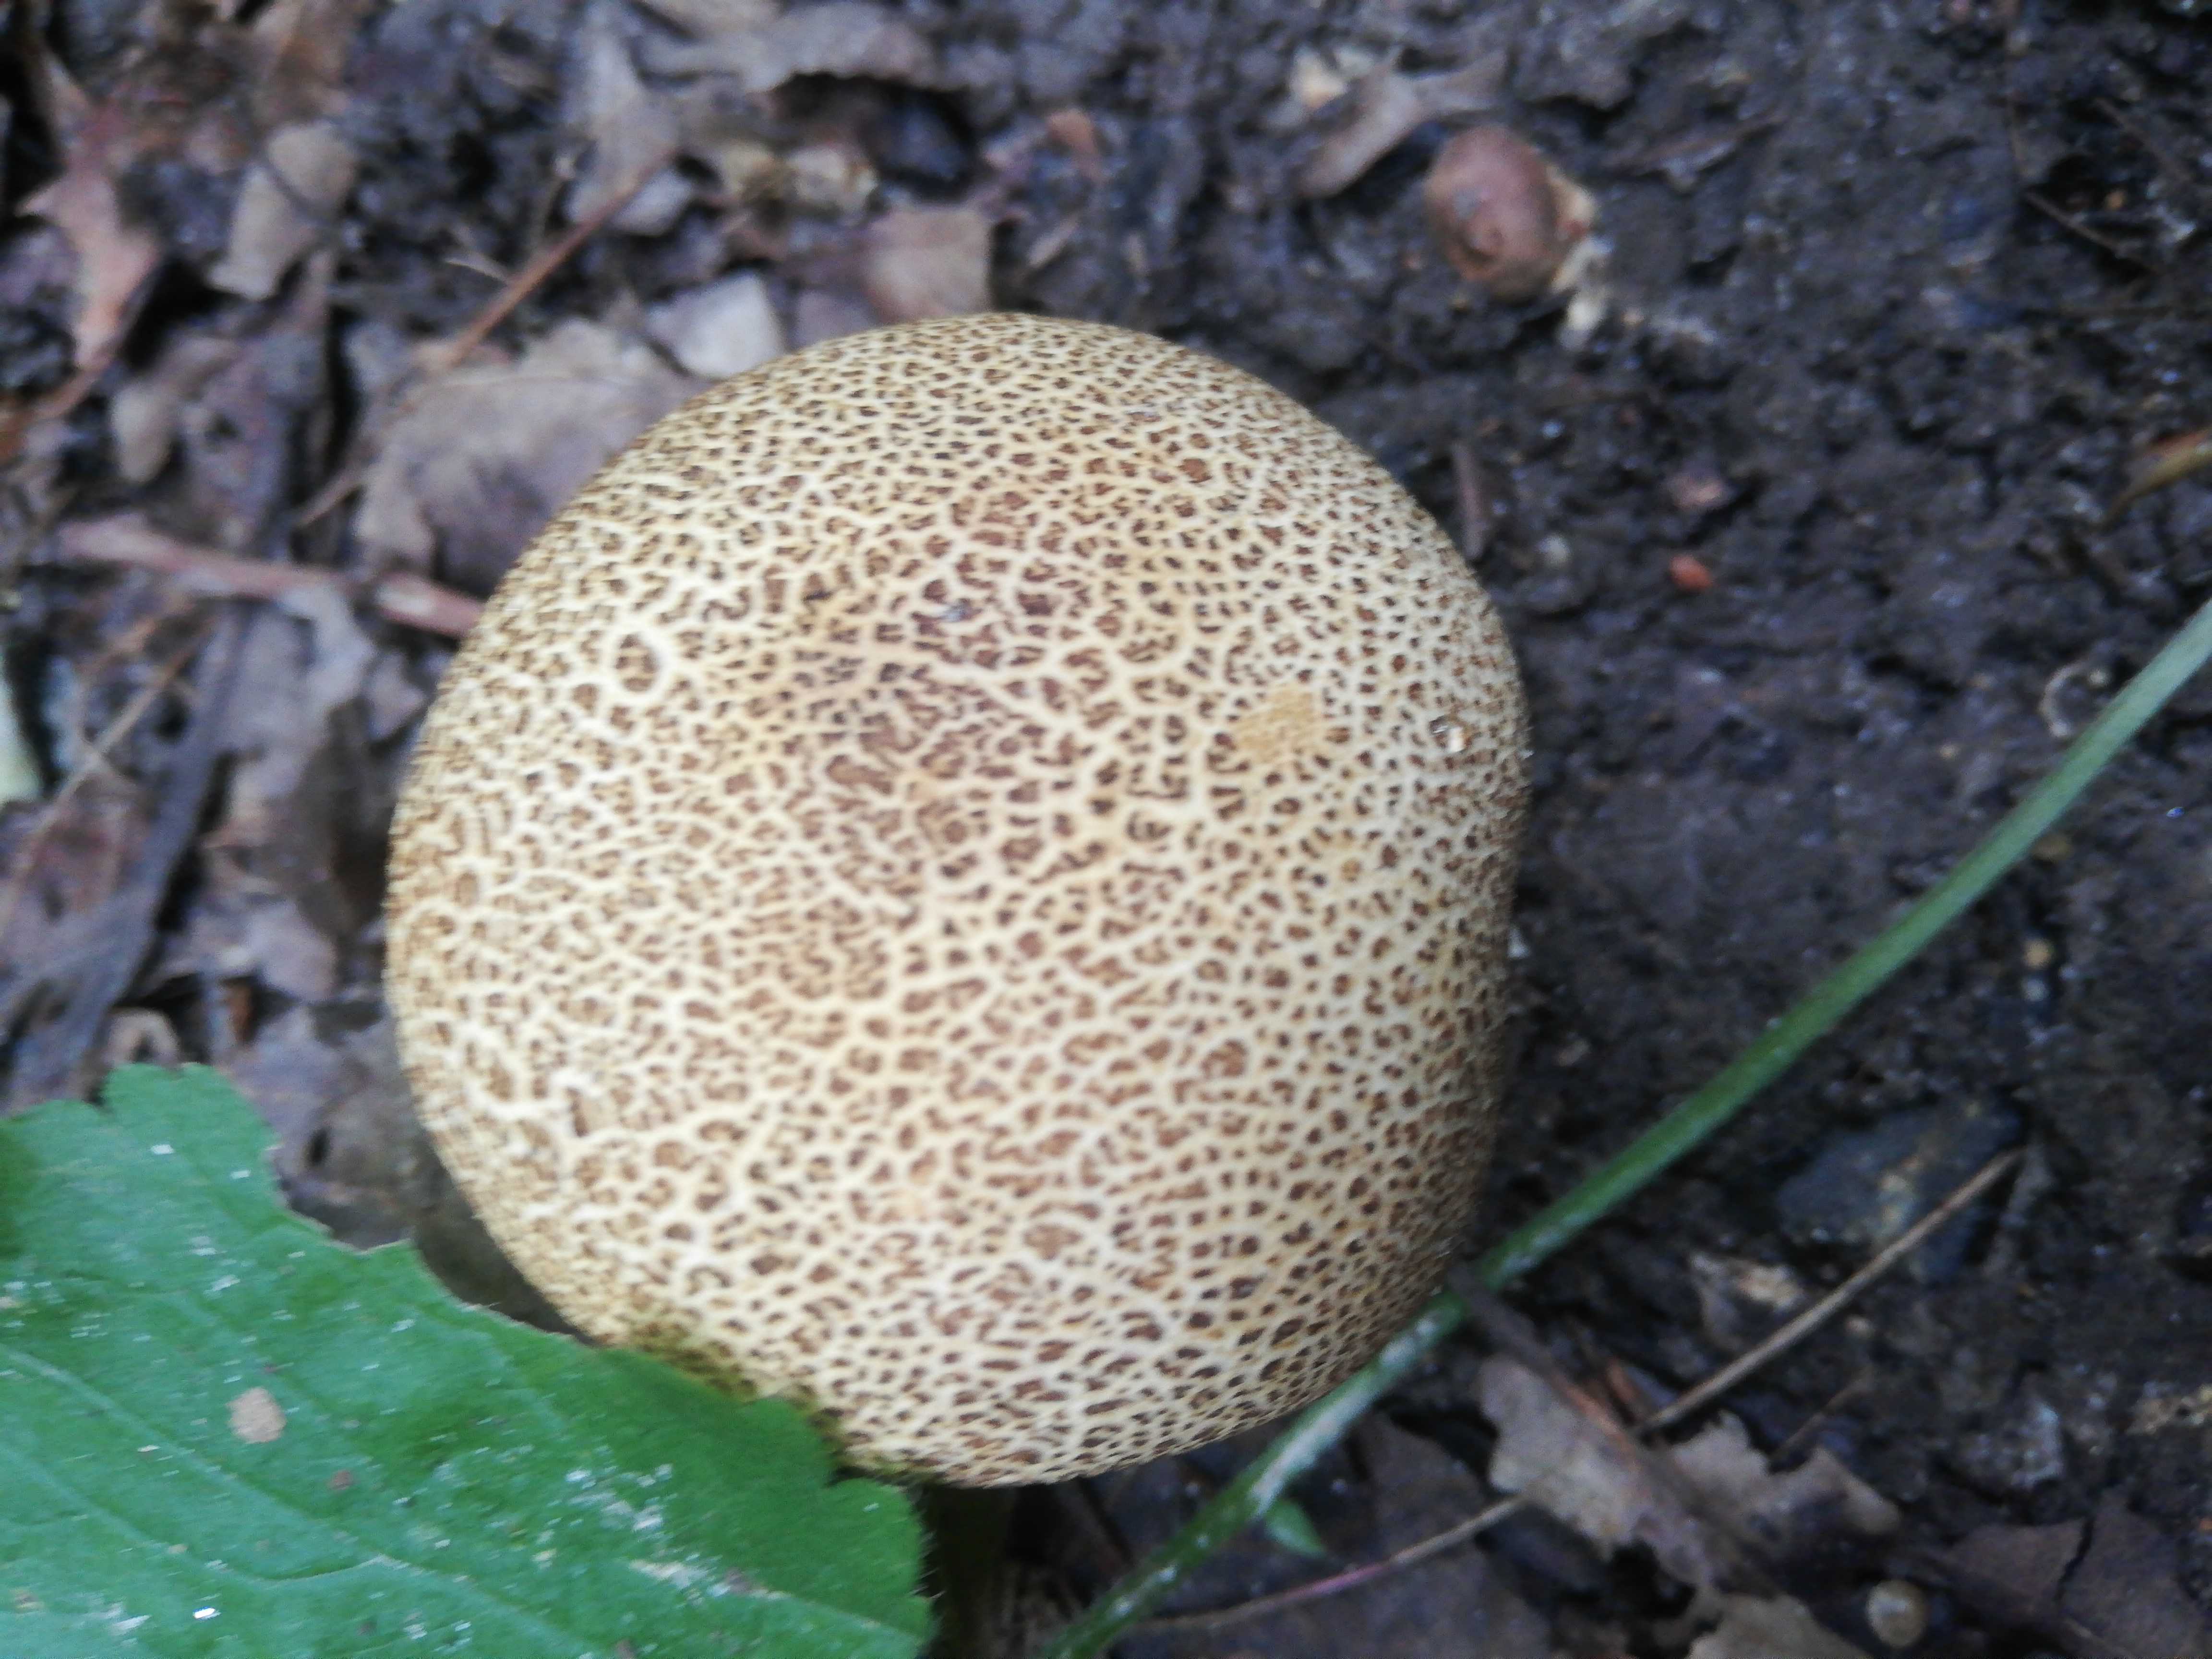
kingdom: Fungi
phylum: Basidiomycota
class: Agaricomycetes
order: Boletales
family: Sclerodermataceae
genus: Scleroderma
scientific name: Scleroderma citrinum
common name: almindelig bruskbold
